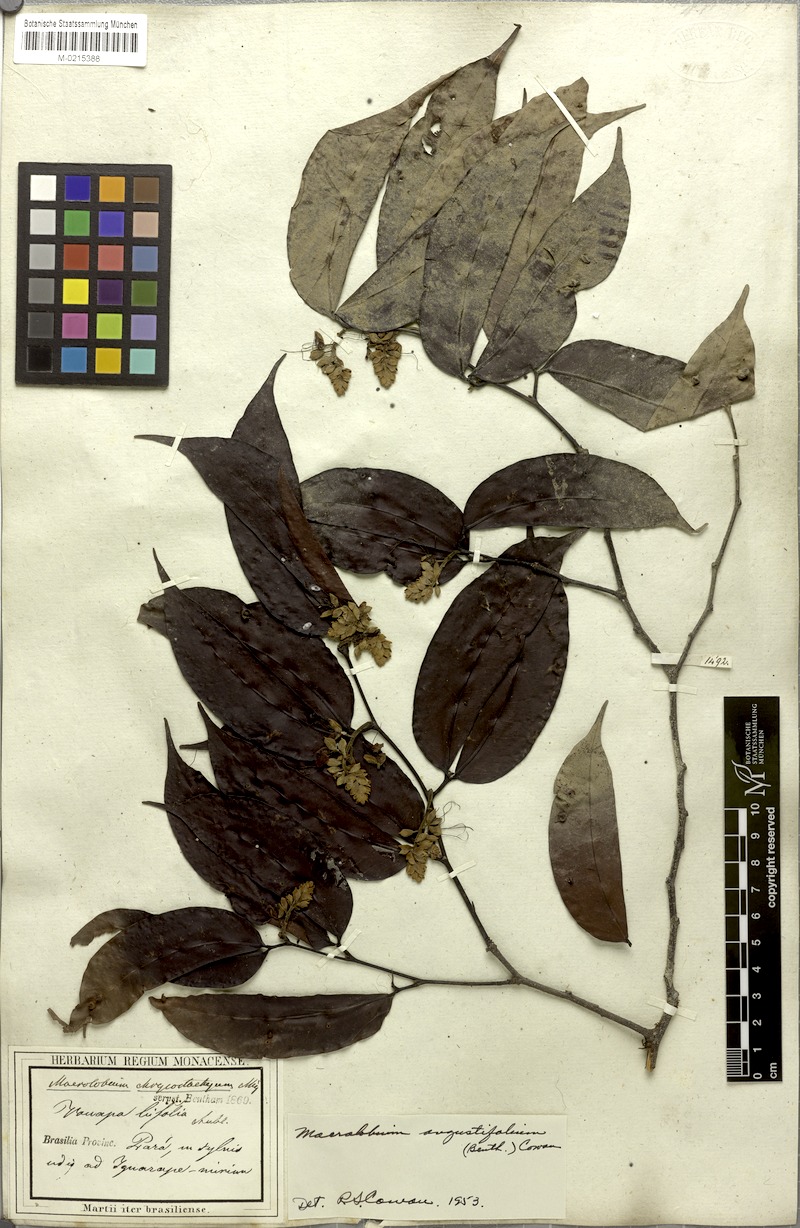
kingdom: Plantae
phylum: Tracheophyta
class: Magnoliopsida
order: Fabales
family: Fabaceae
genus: Macrolobium
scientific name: Macrolobium angustifolium
